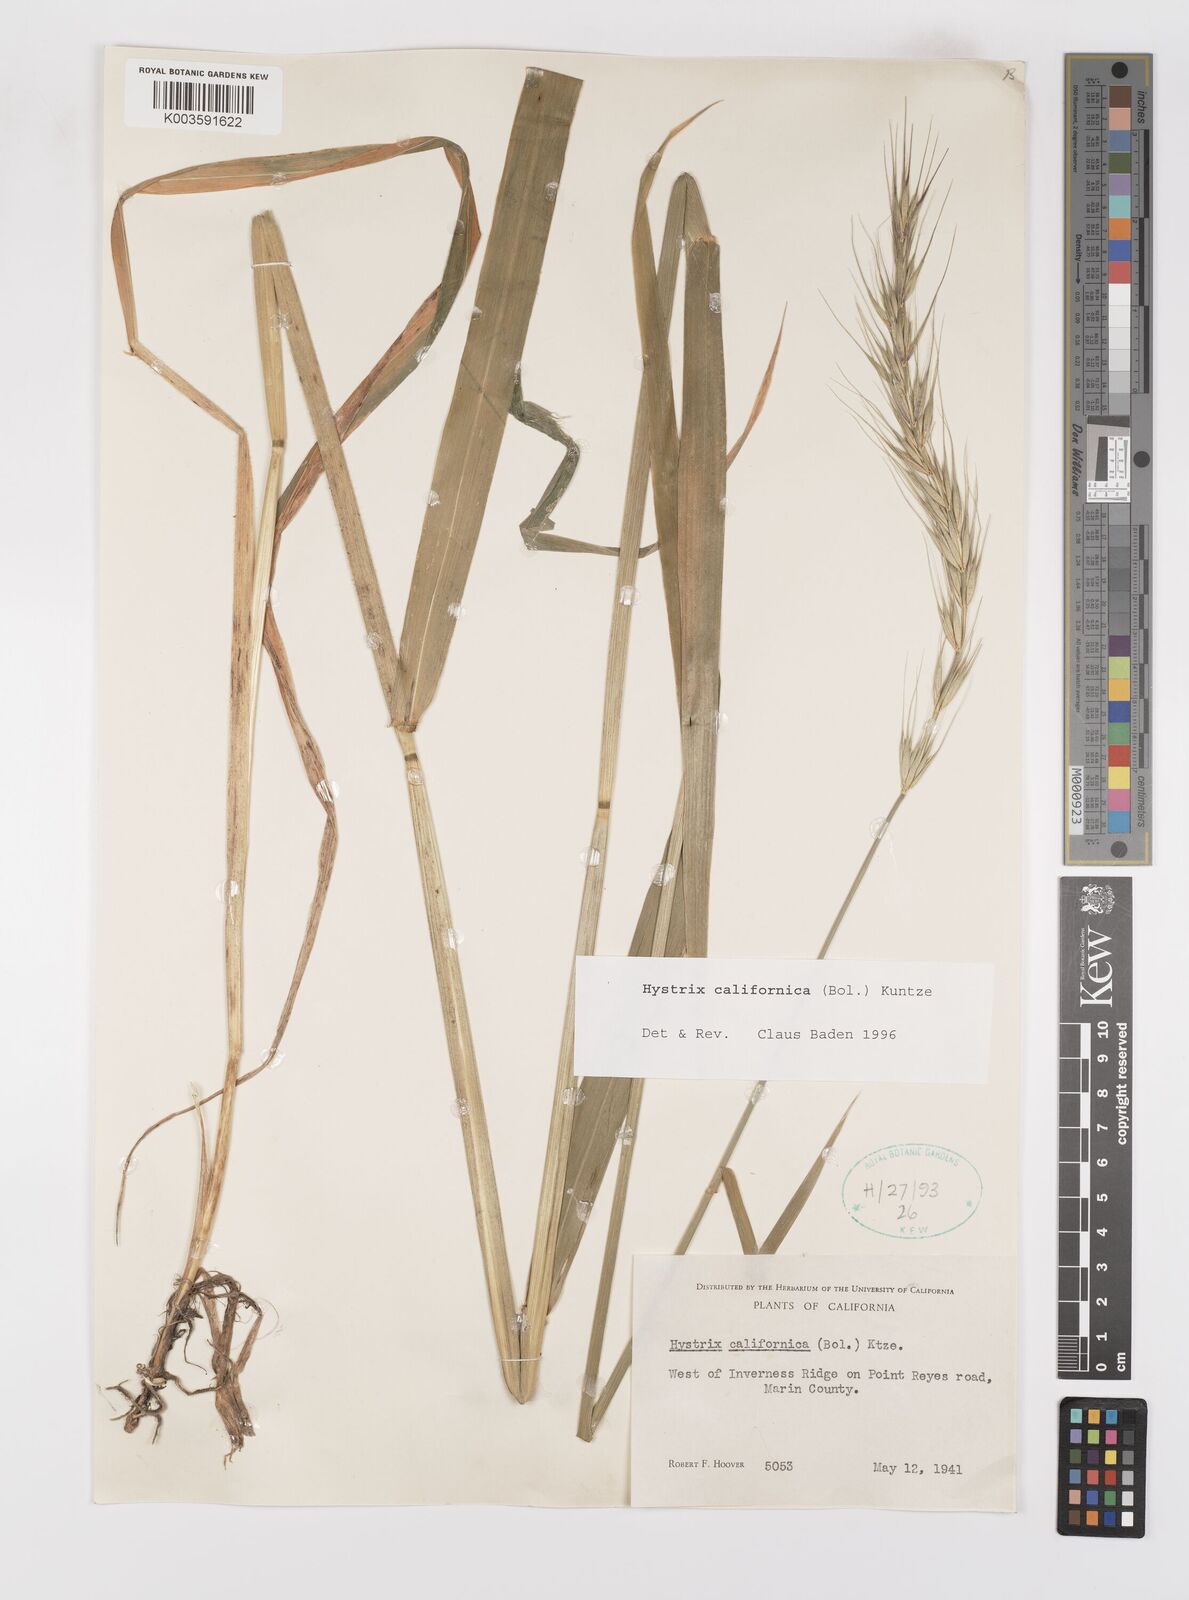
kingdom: Plantae
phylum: Tracheophyta
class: Liliopsida
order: Poales
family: Poaceae
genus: Leymus
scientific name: Leymus
